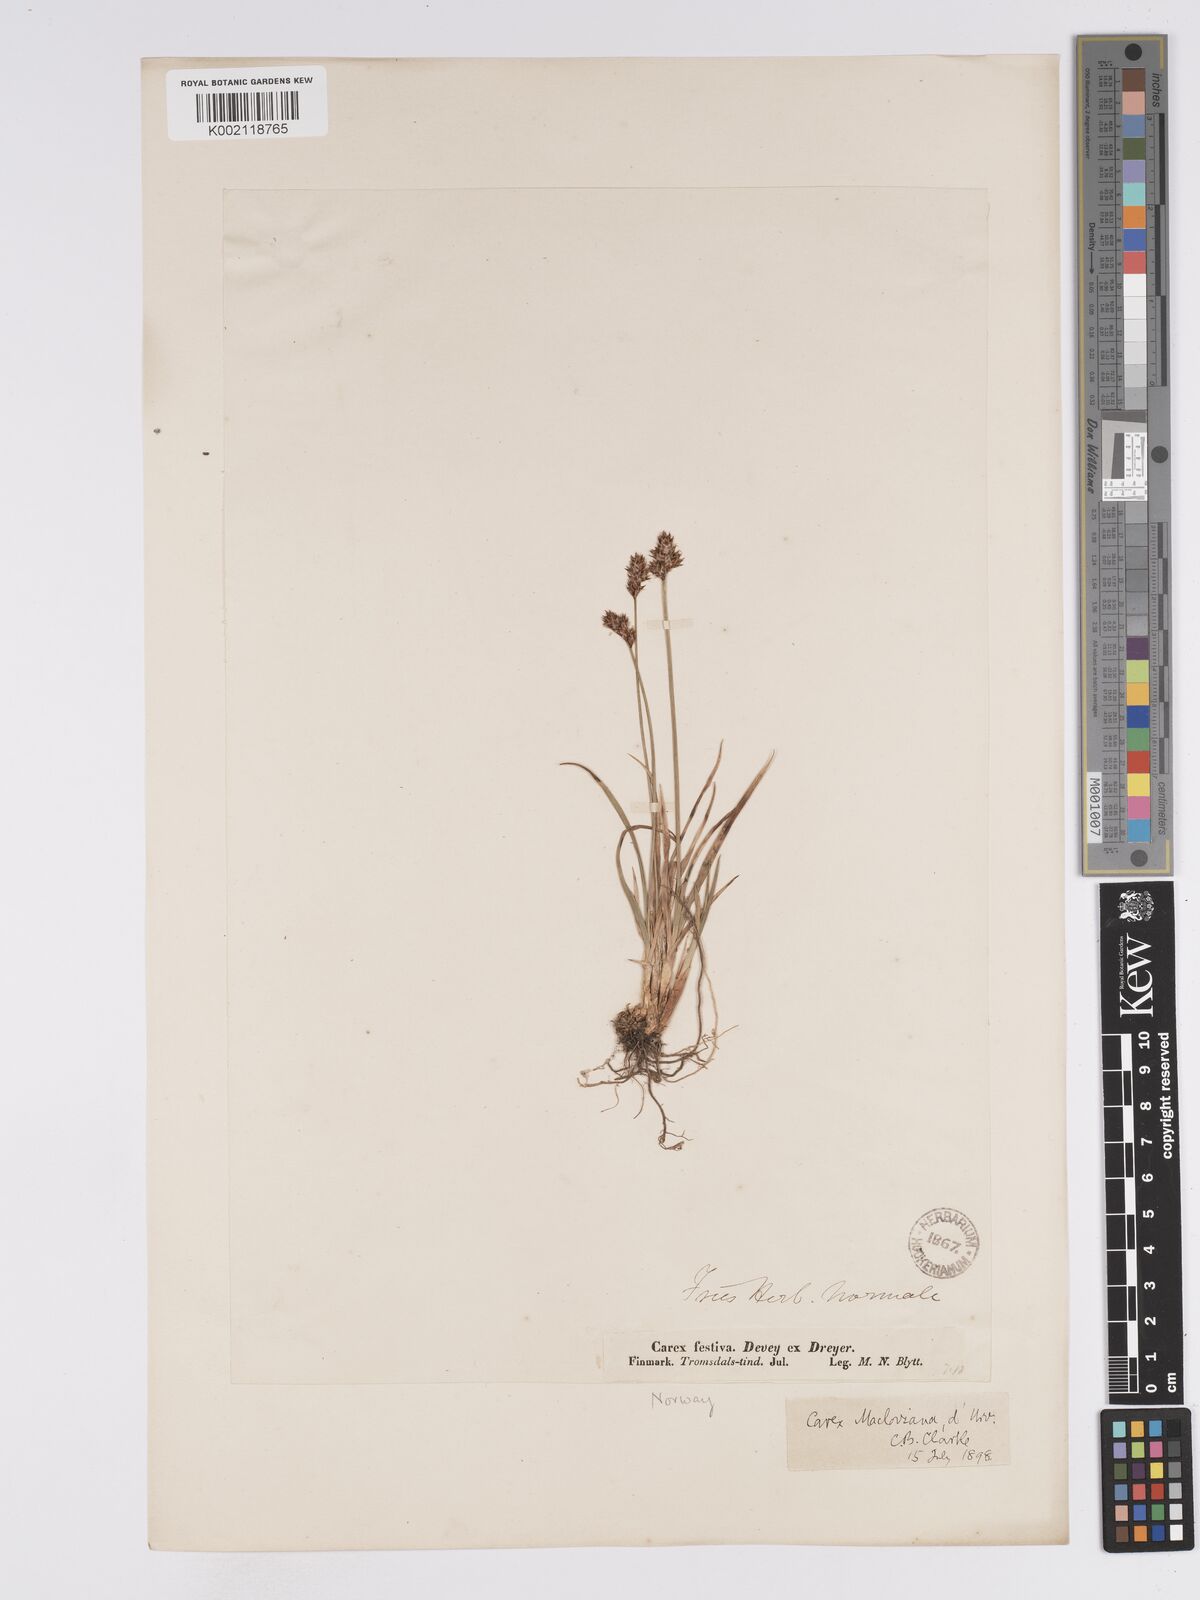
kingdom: Plantae
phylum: Tracheophyta
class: Liliopsida
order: Poales
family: Cyperaceae
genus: Carex
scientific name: Carex macloviana
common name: Falkland island sedge
